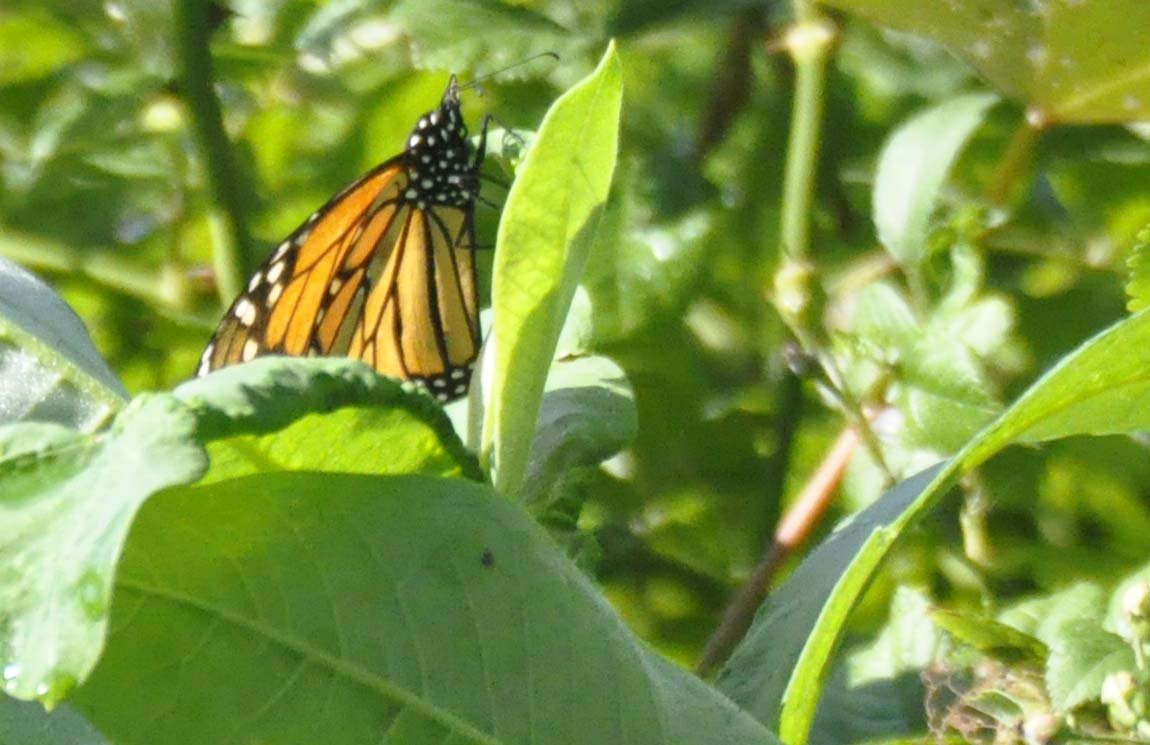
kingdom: Animalia
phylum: Arthropoda
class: Insecta
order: Lepidoptera
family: Nymphalidae
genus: Danaus
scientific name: Danaus plexippus
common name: Monarch
